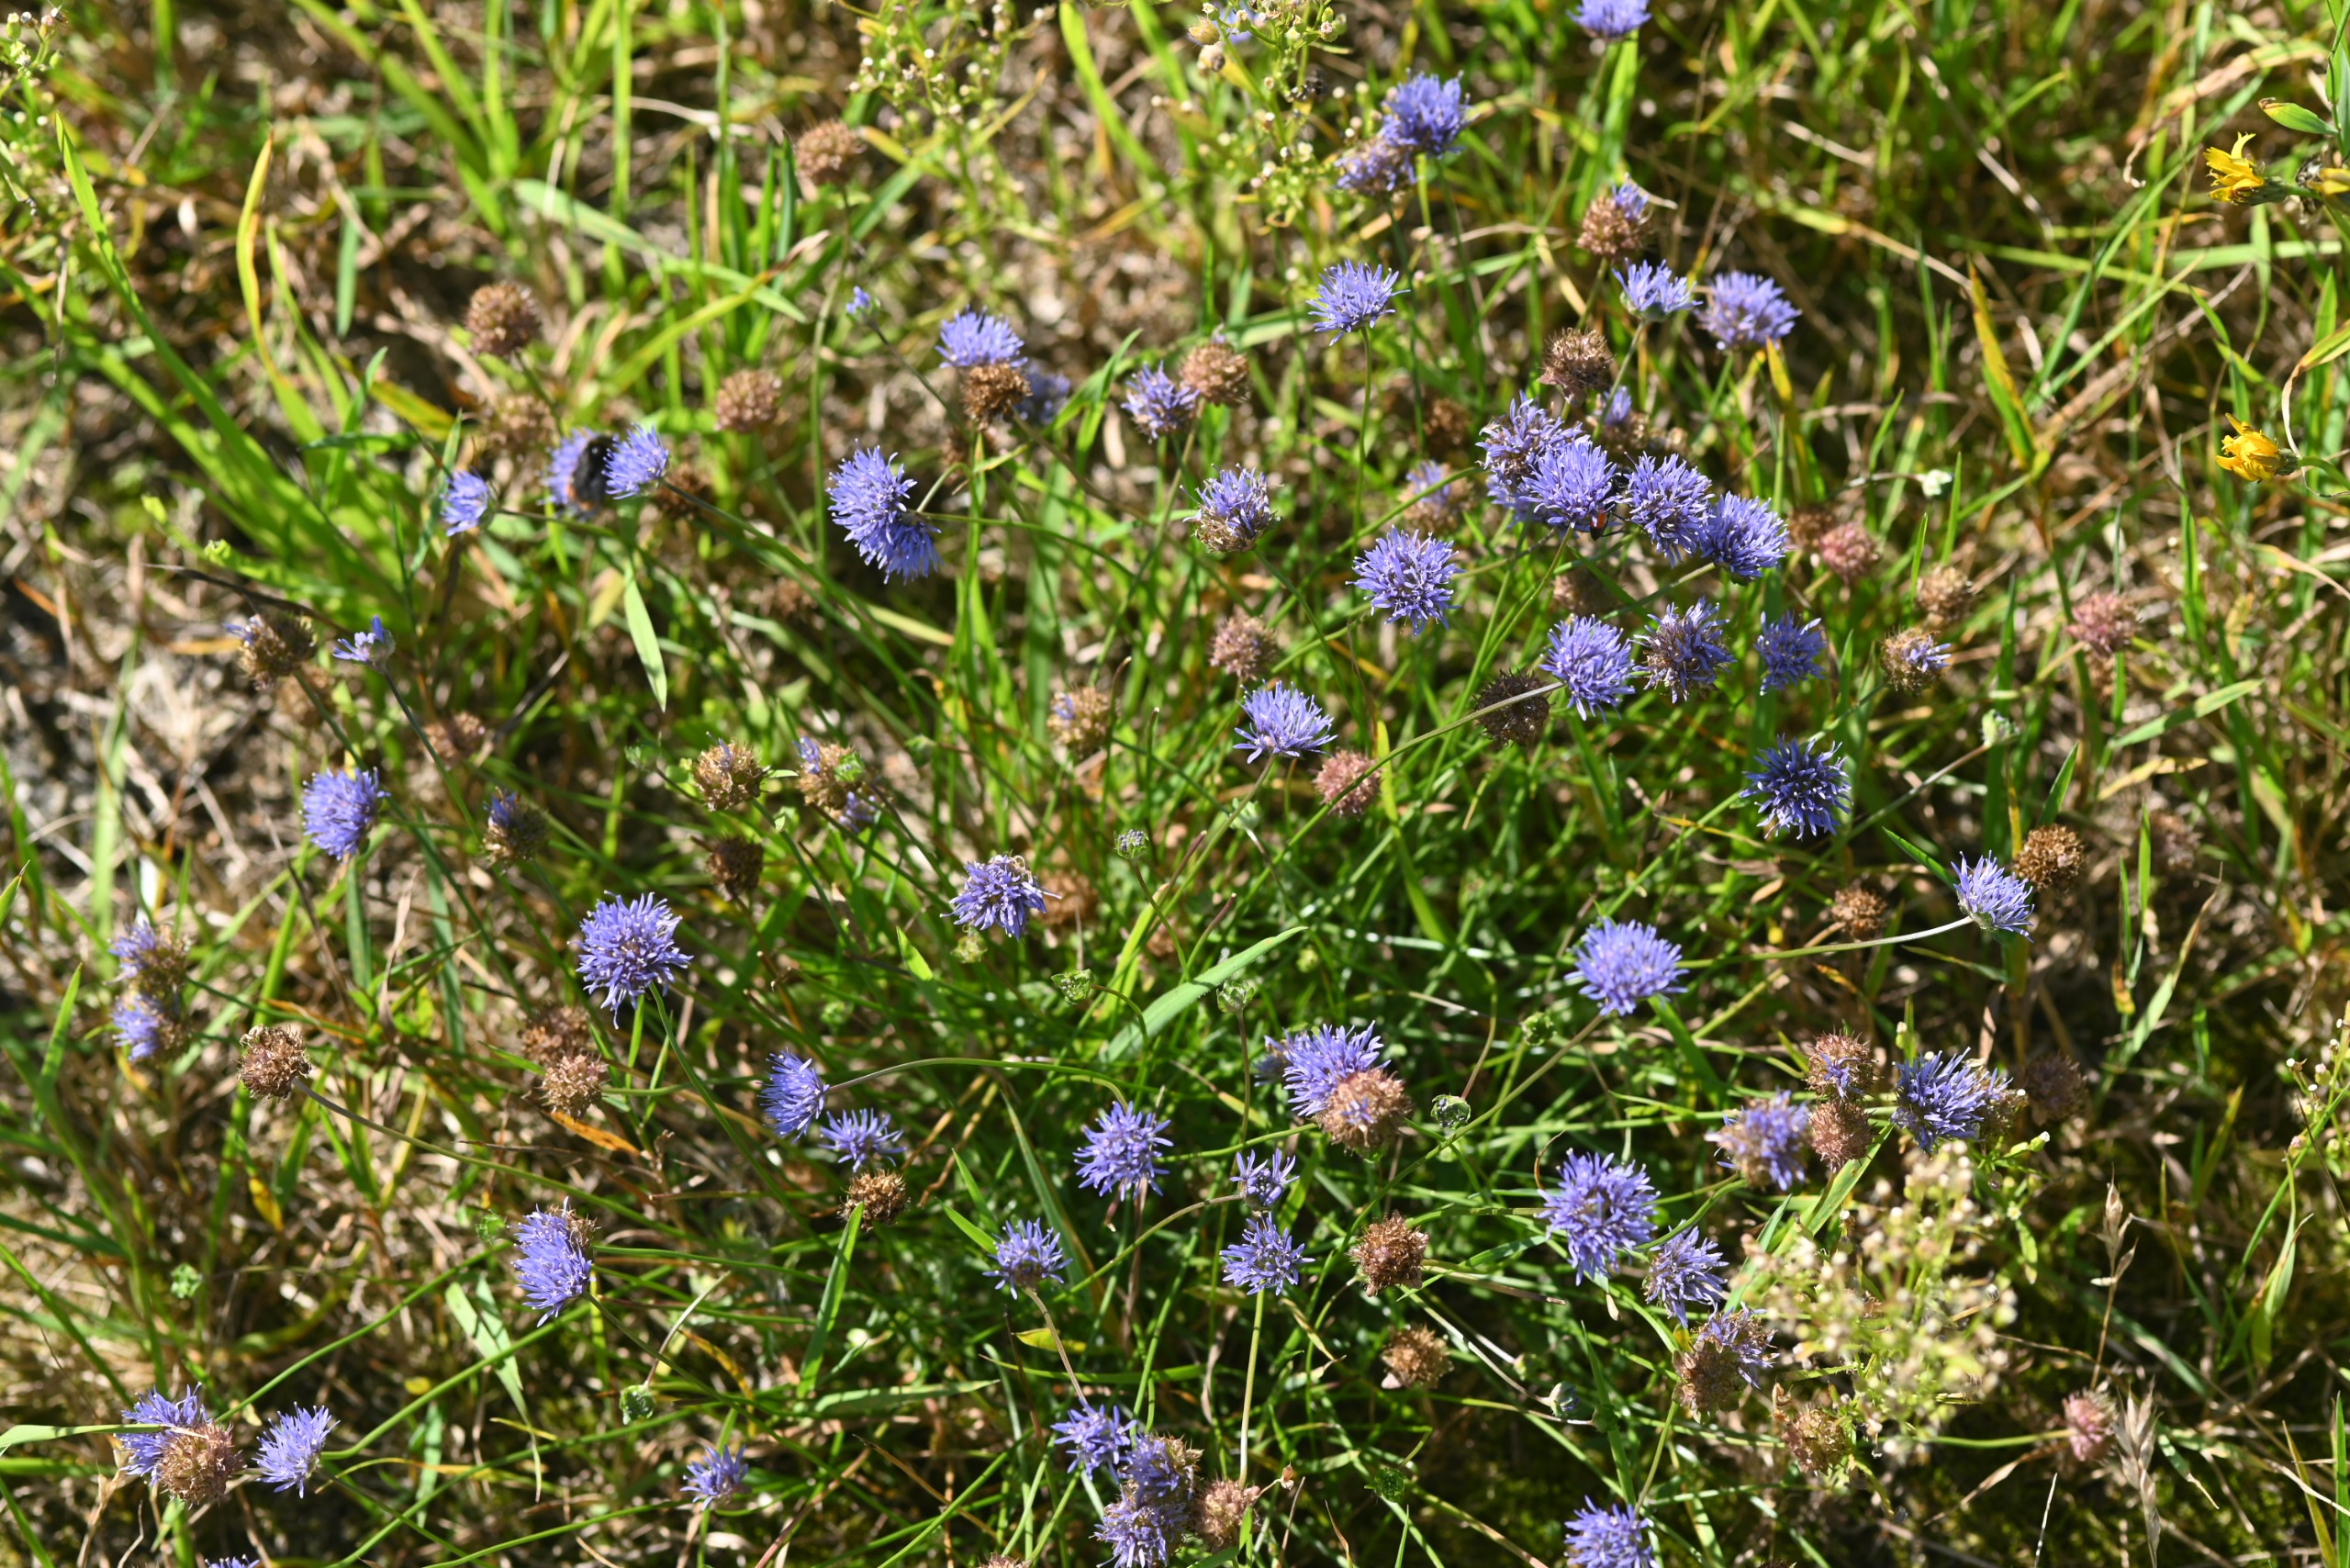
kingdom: Plantae
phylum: Tracheophyta
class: Magnoliopsida
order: Asterales
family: Campanulaceae
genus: Jasione
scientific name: Jasione montana
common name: Blåmunke
